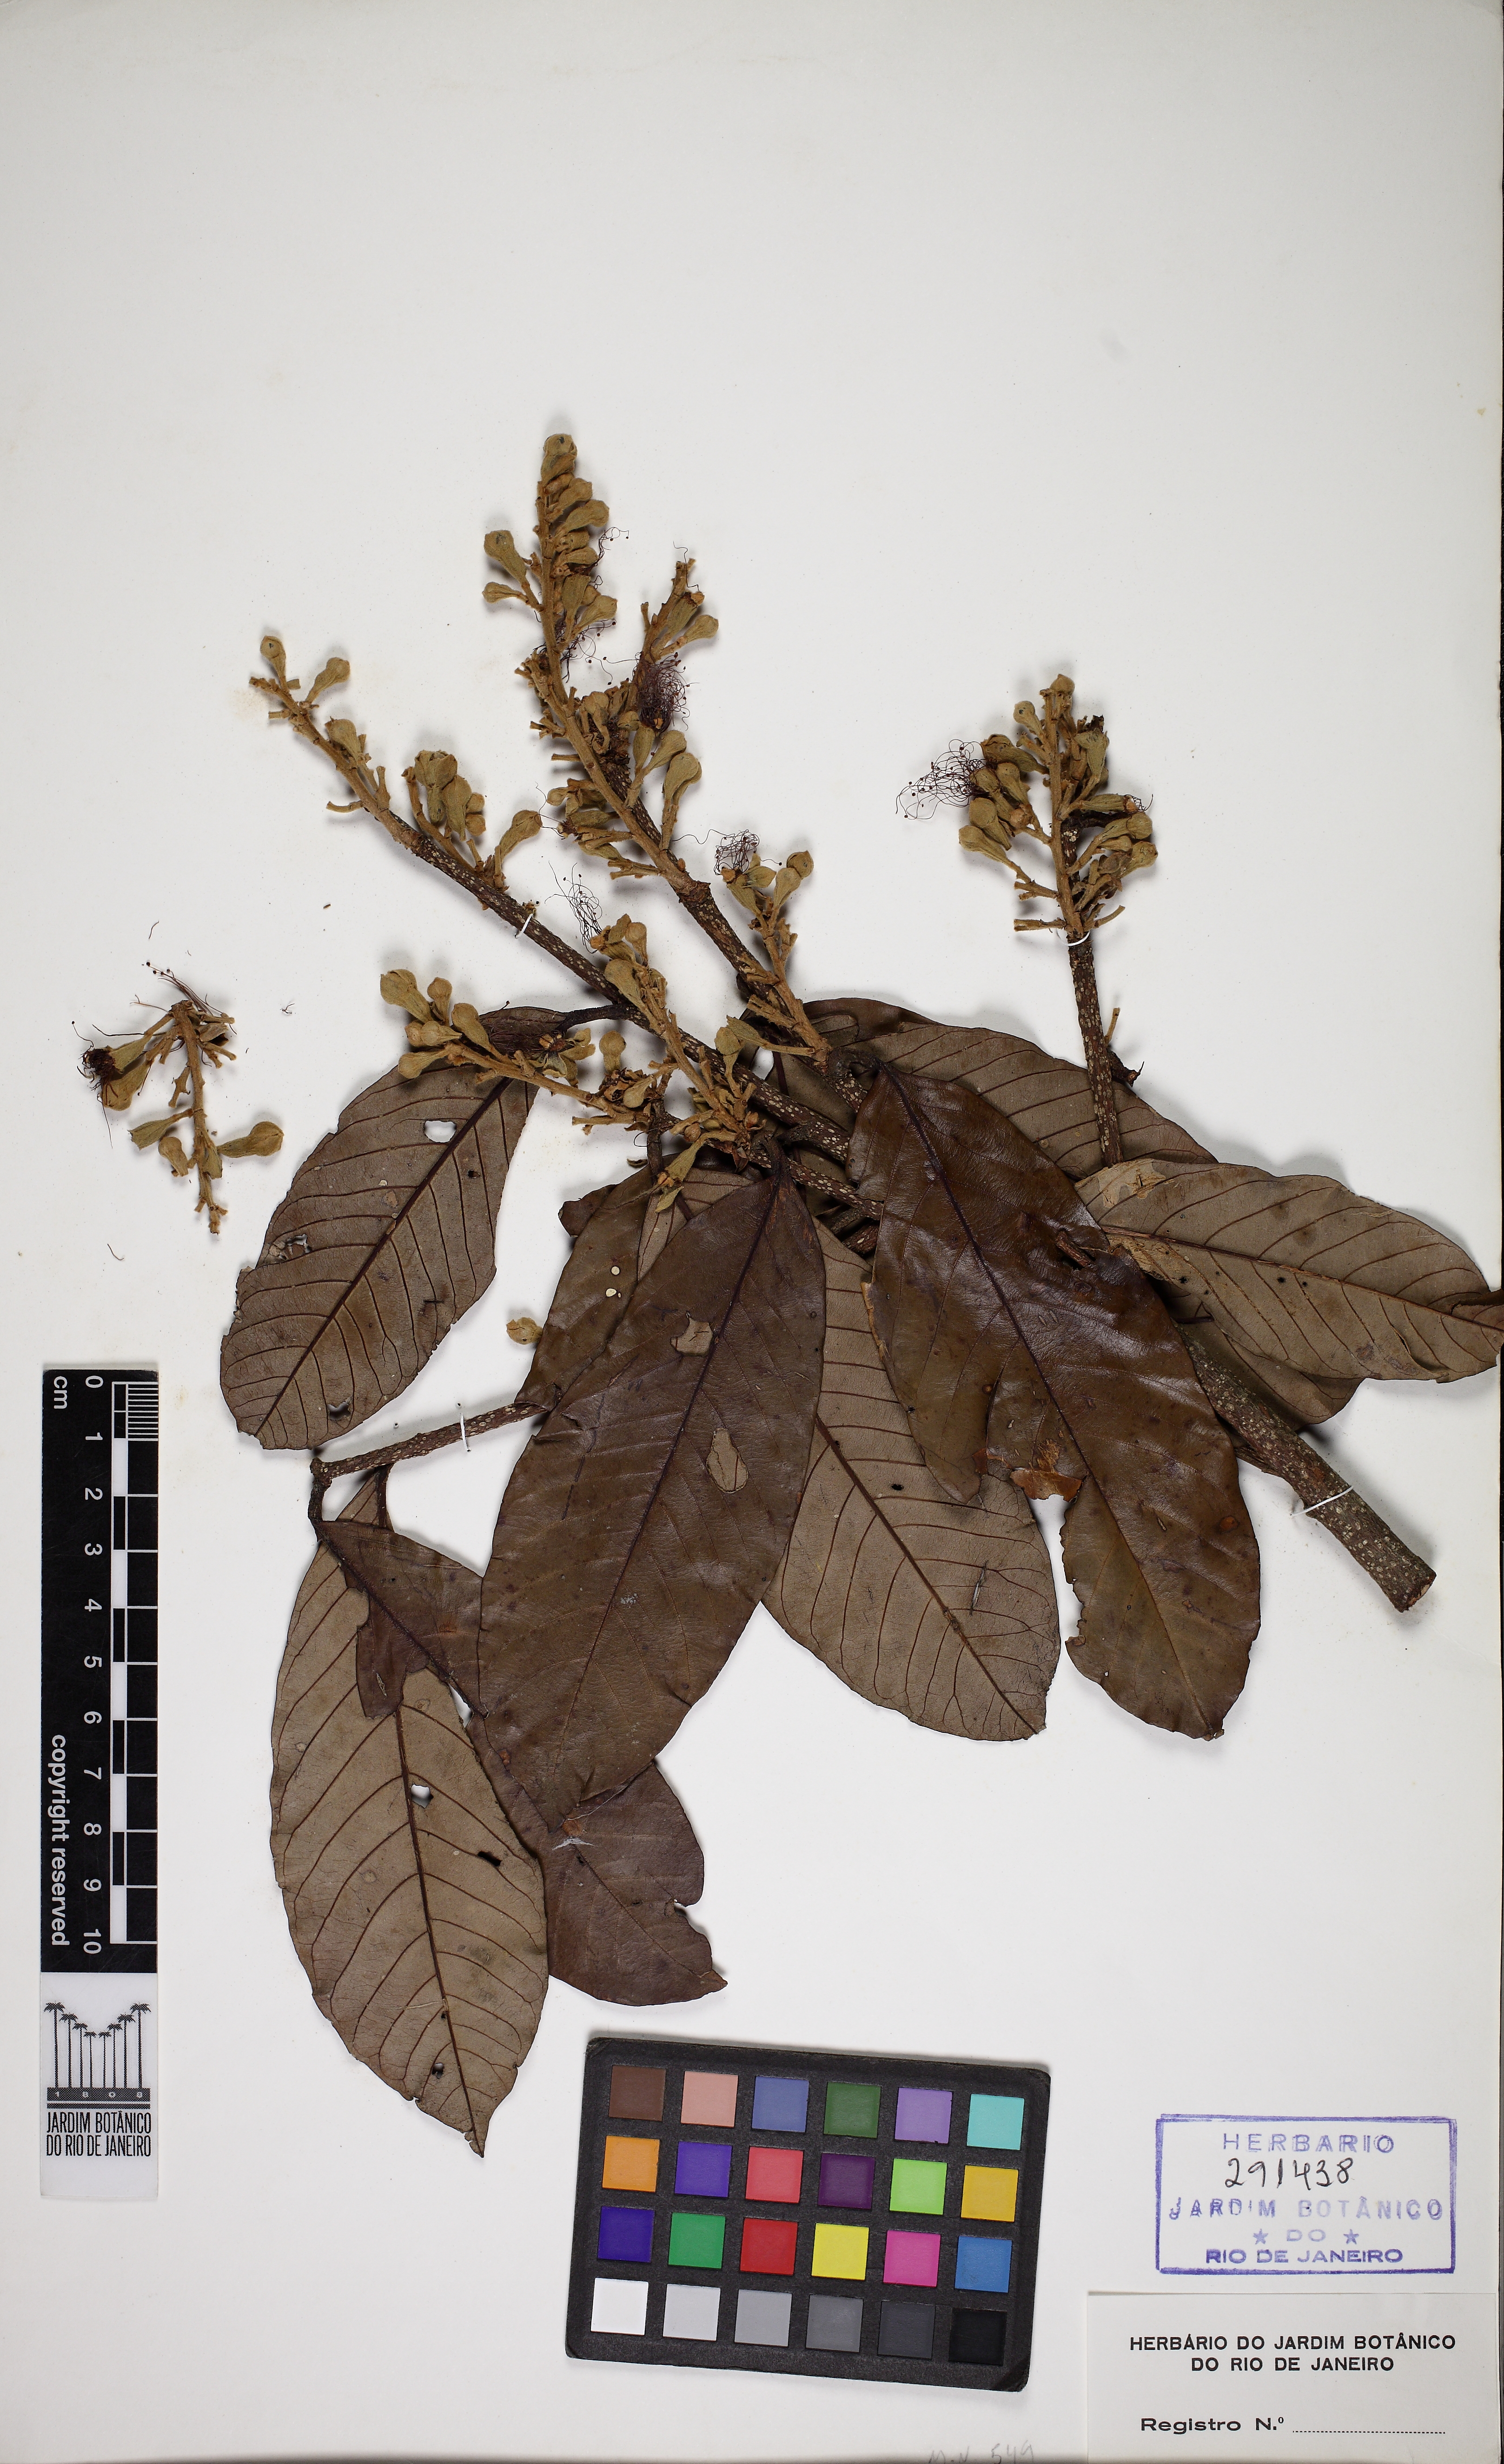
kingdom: Plantae
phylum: Tracheophyta
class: Magnoliopsida
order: Malpighiales
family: Chrysobalanaceae
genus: Couepia
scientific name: Couepia venosa
